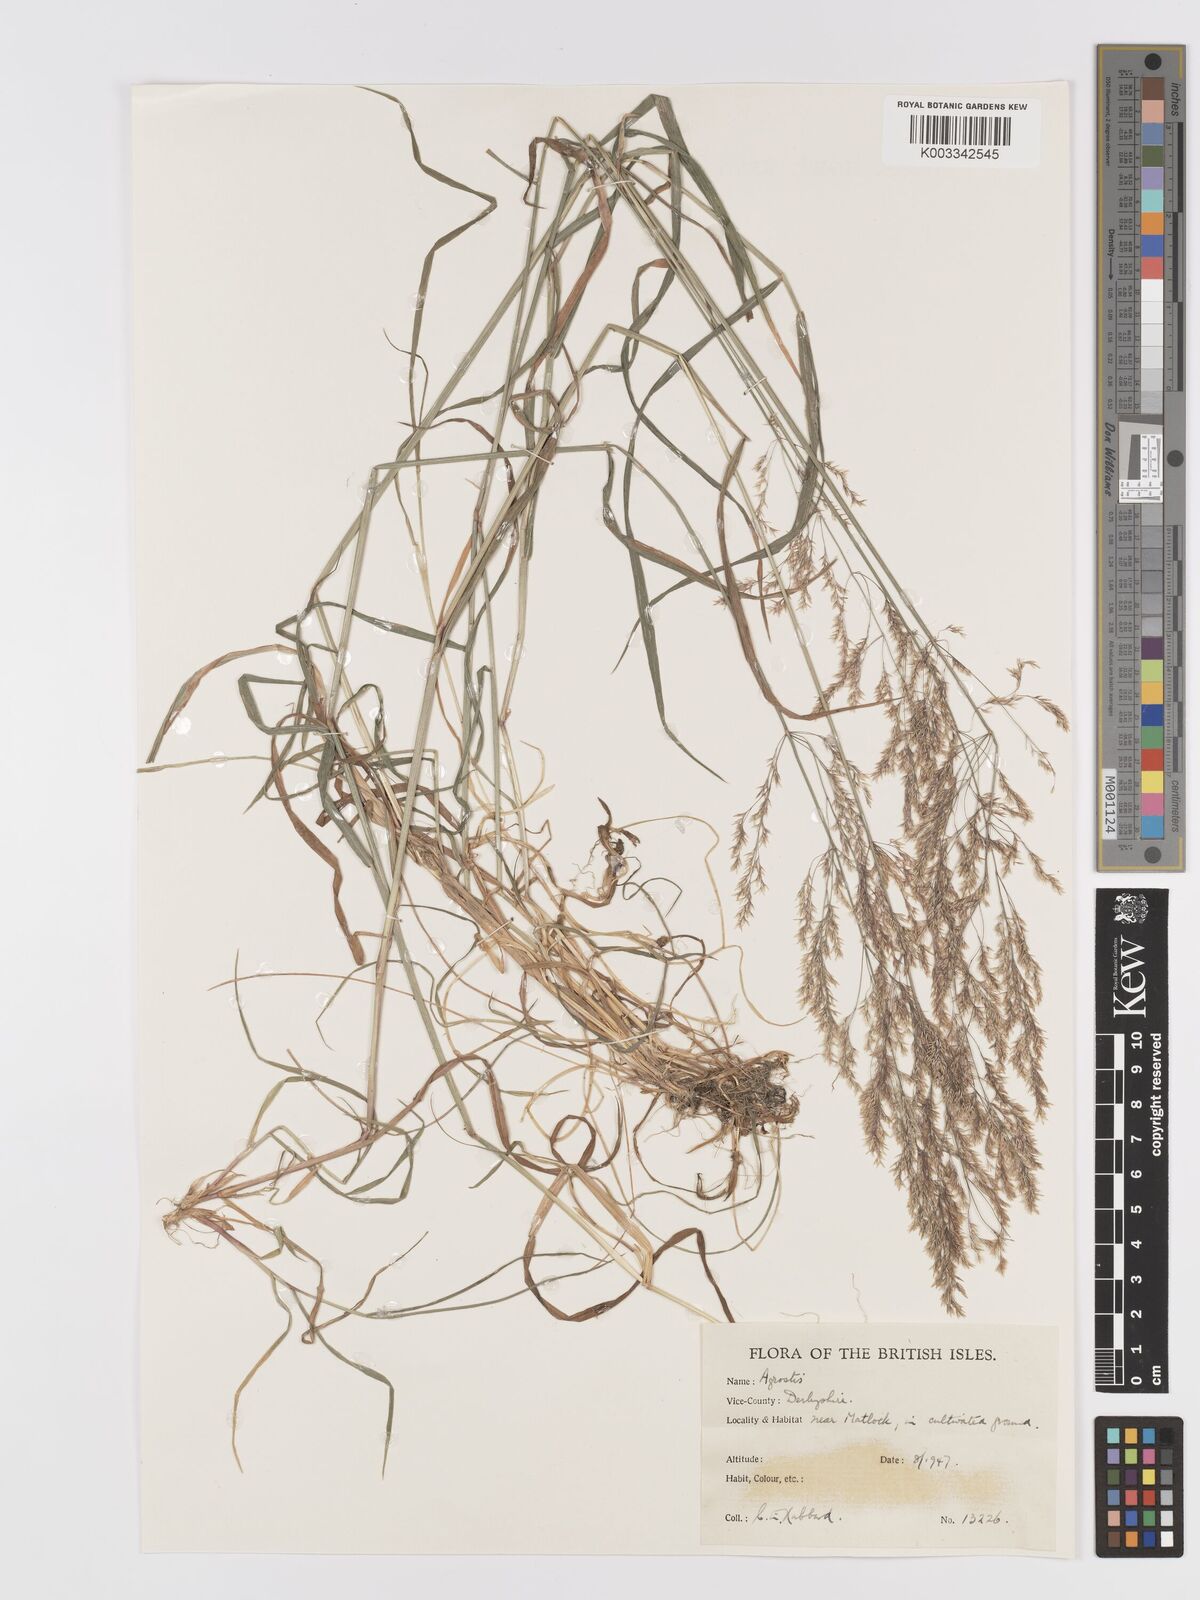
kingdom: Plantae
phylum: Tracheophyta
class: Liliopsida
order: Poales
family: Poaceae
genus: Agrostis
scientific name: Agrostis
